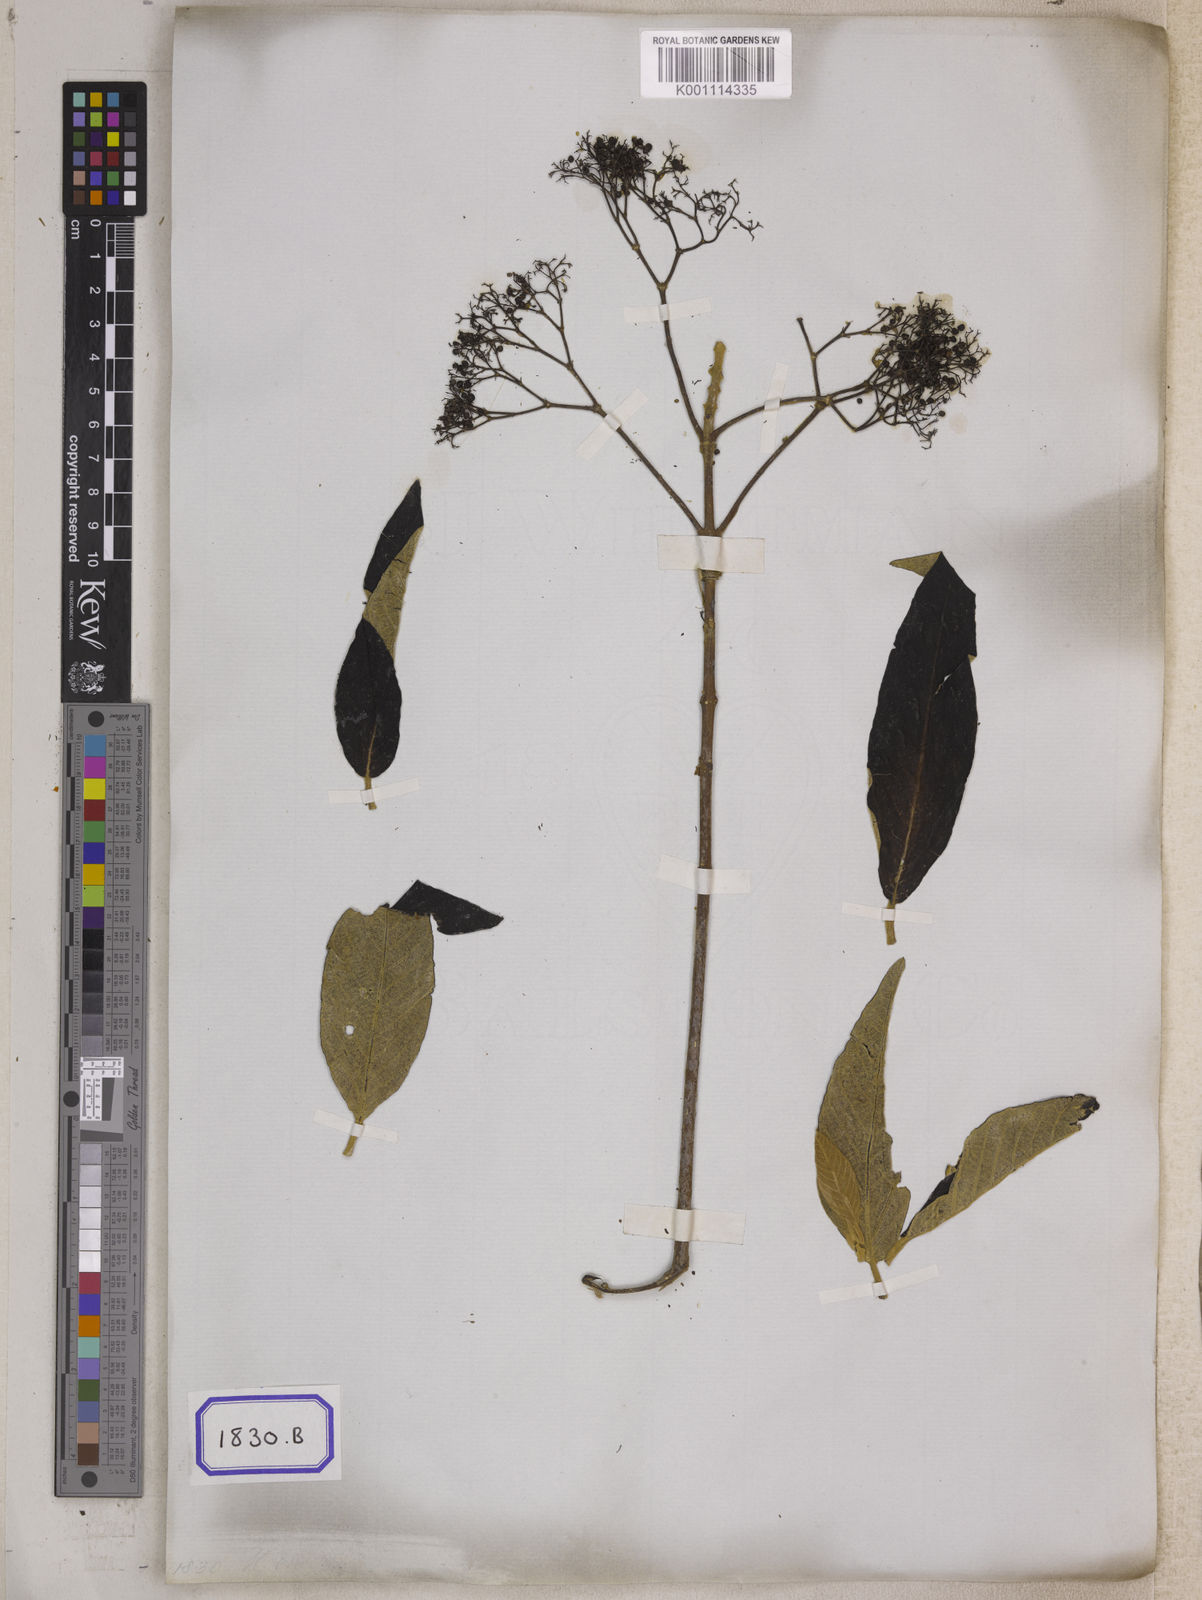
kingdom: Plantae
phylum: Tracheophyta
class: Magnoliopsida
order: Lamiales
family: Lamiaceae
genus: Callicarpa
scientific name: Callicarpa nudiflora
